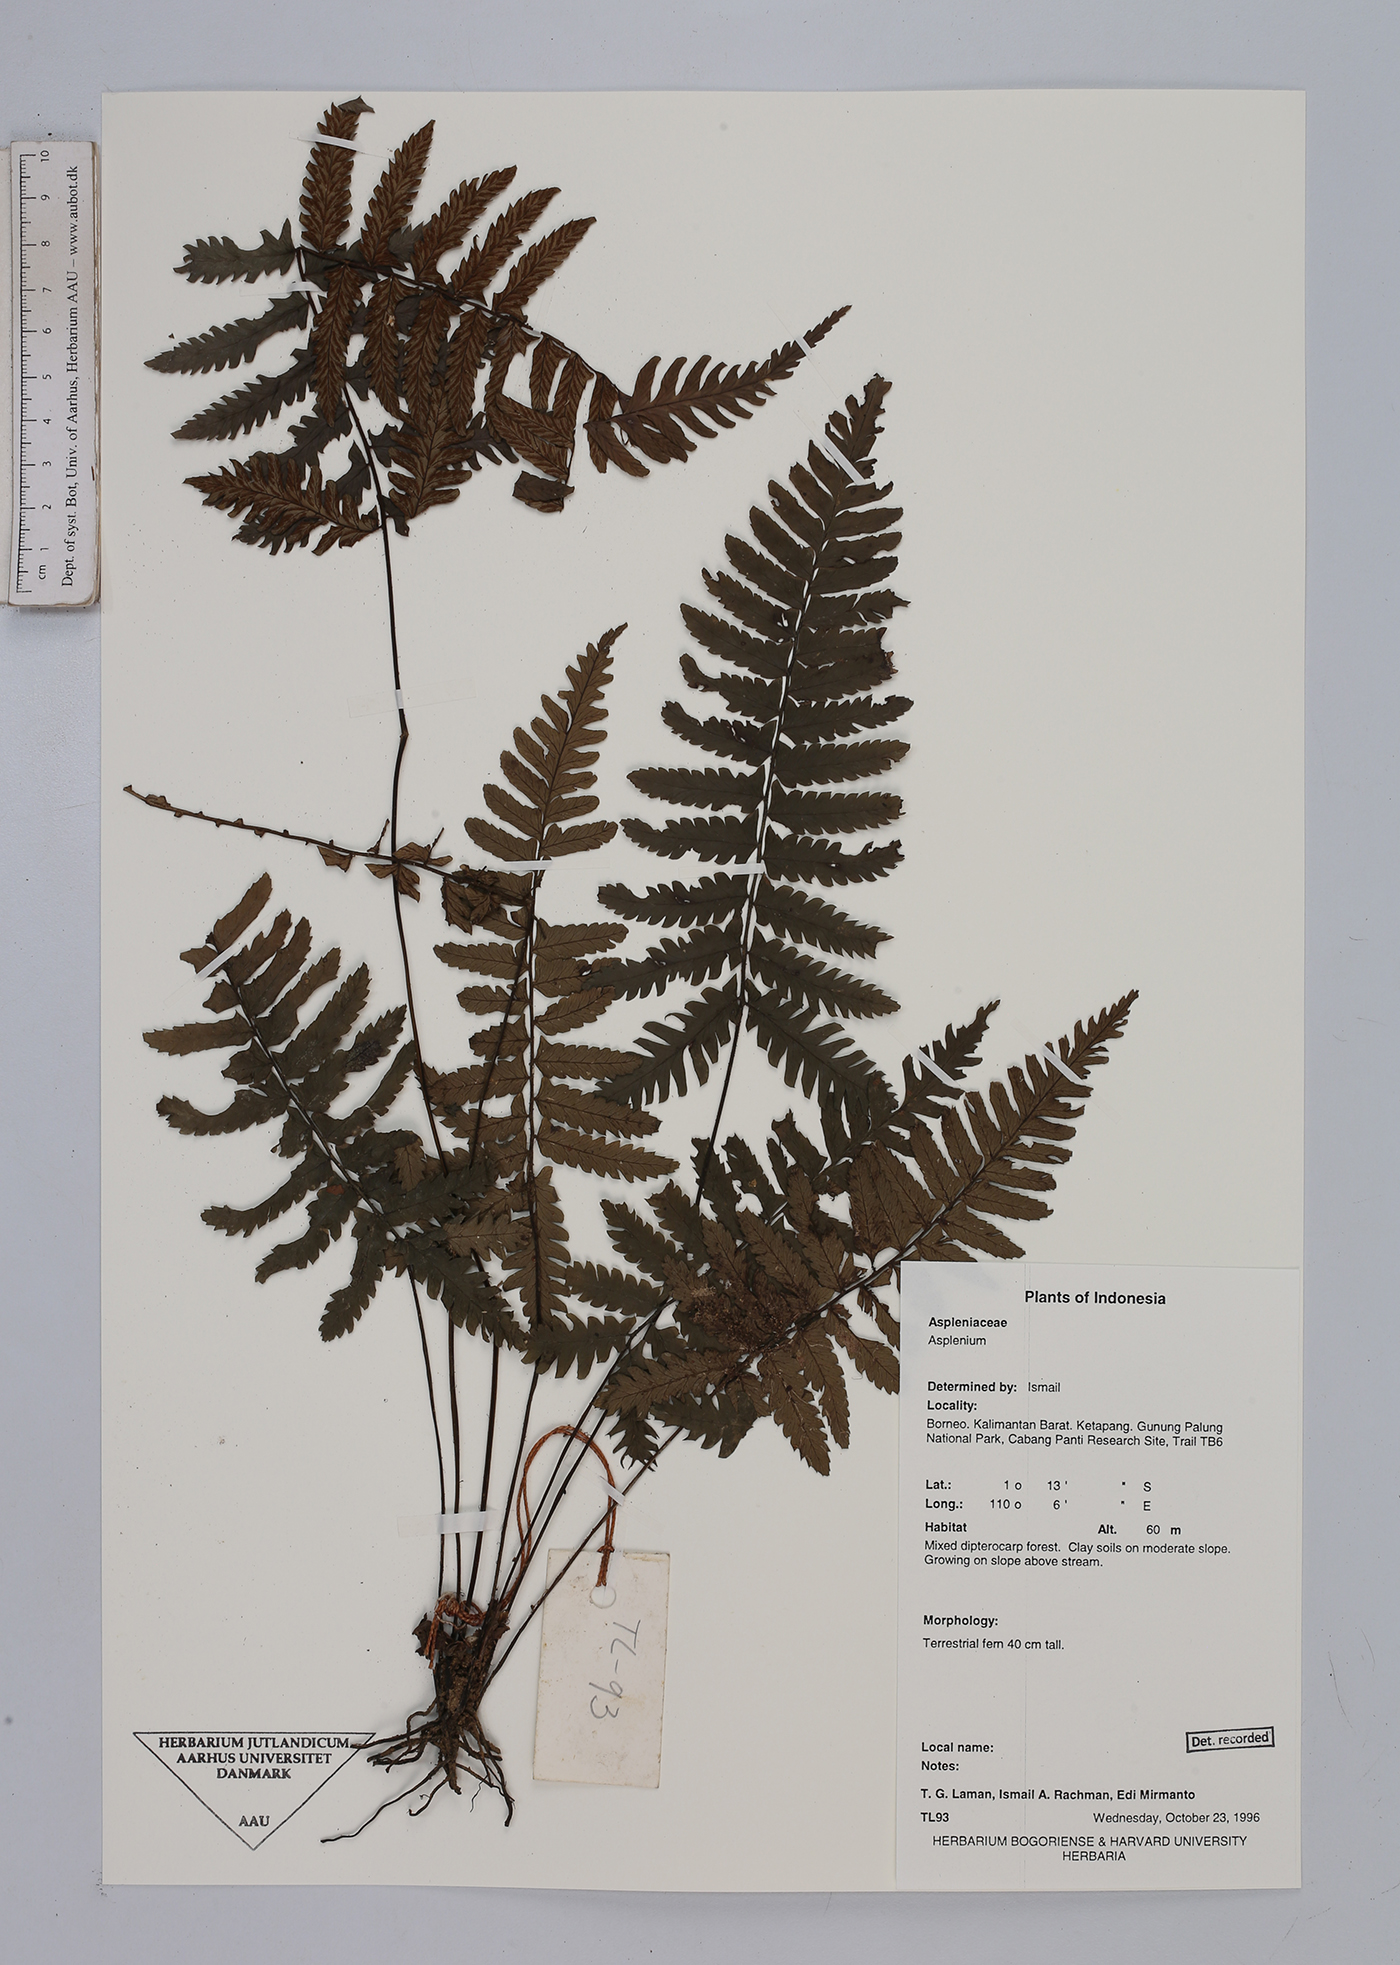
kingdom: Plantae
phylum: Tracheophyta
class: Polypodiopsida
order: Polypodiales
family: Aspleniaceae
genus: Asplenium
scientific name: Asplenium
